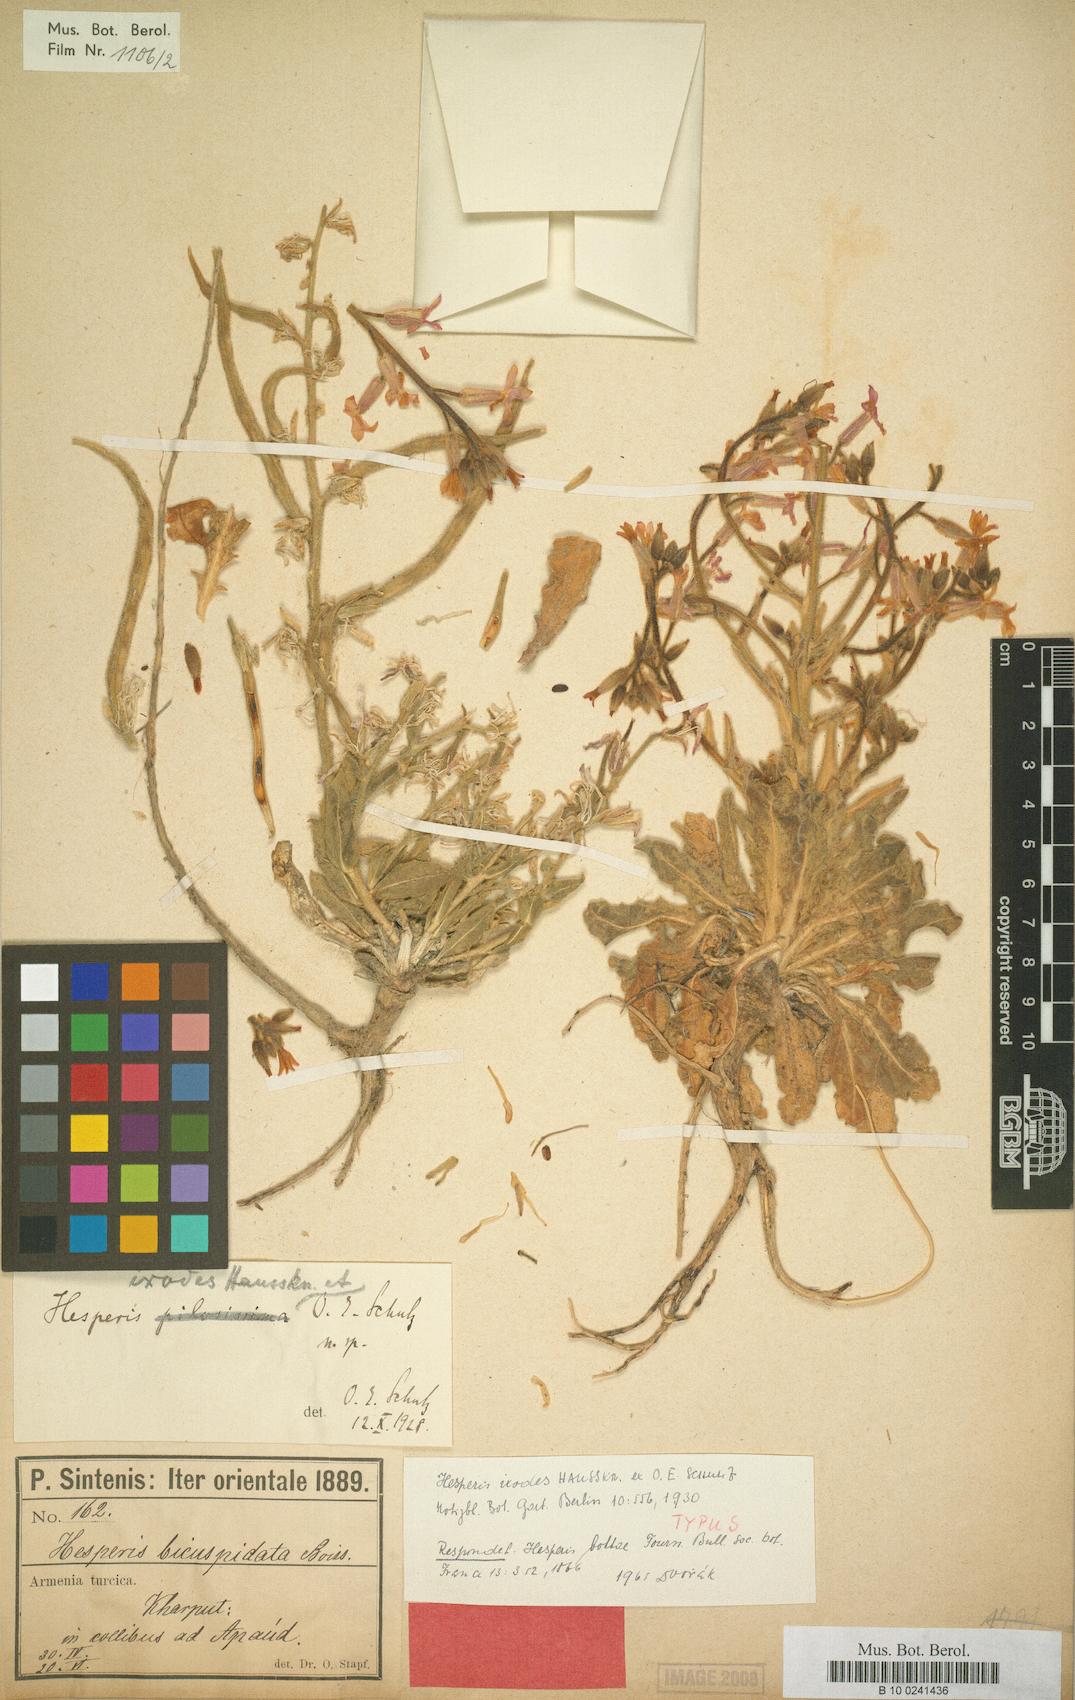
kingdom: Plantae
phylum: Tracheophyta
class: Magnoliopsida
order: Brassicales
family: Brassicaceae
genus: Hesperis
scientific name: Hesperis bottae
